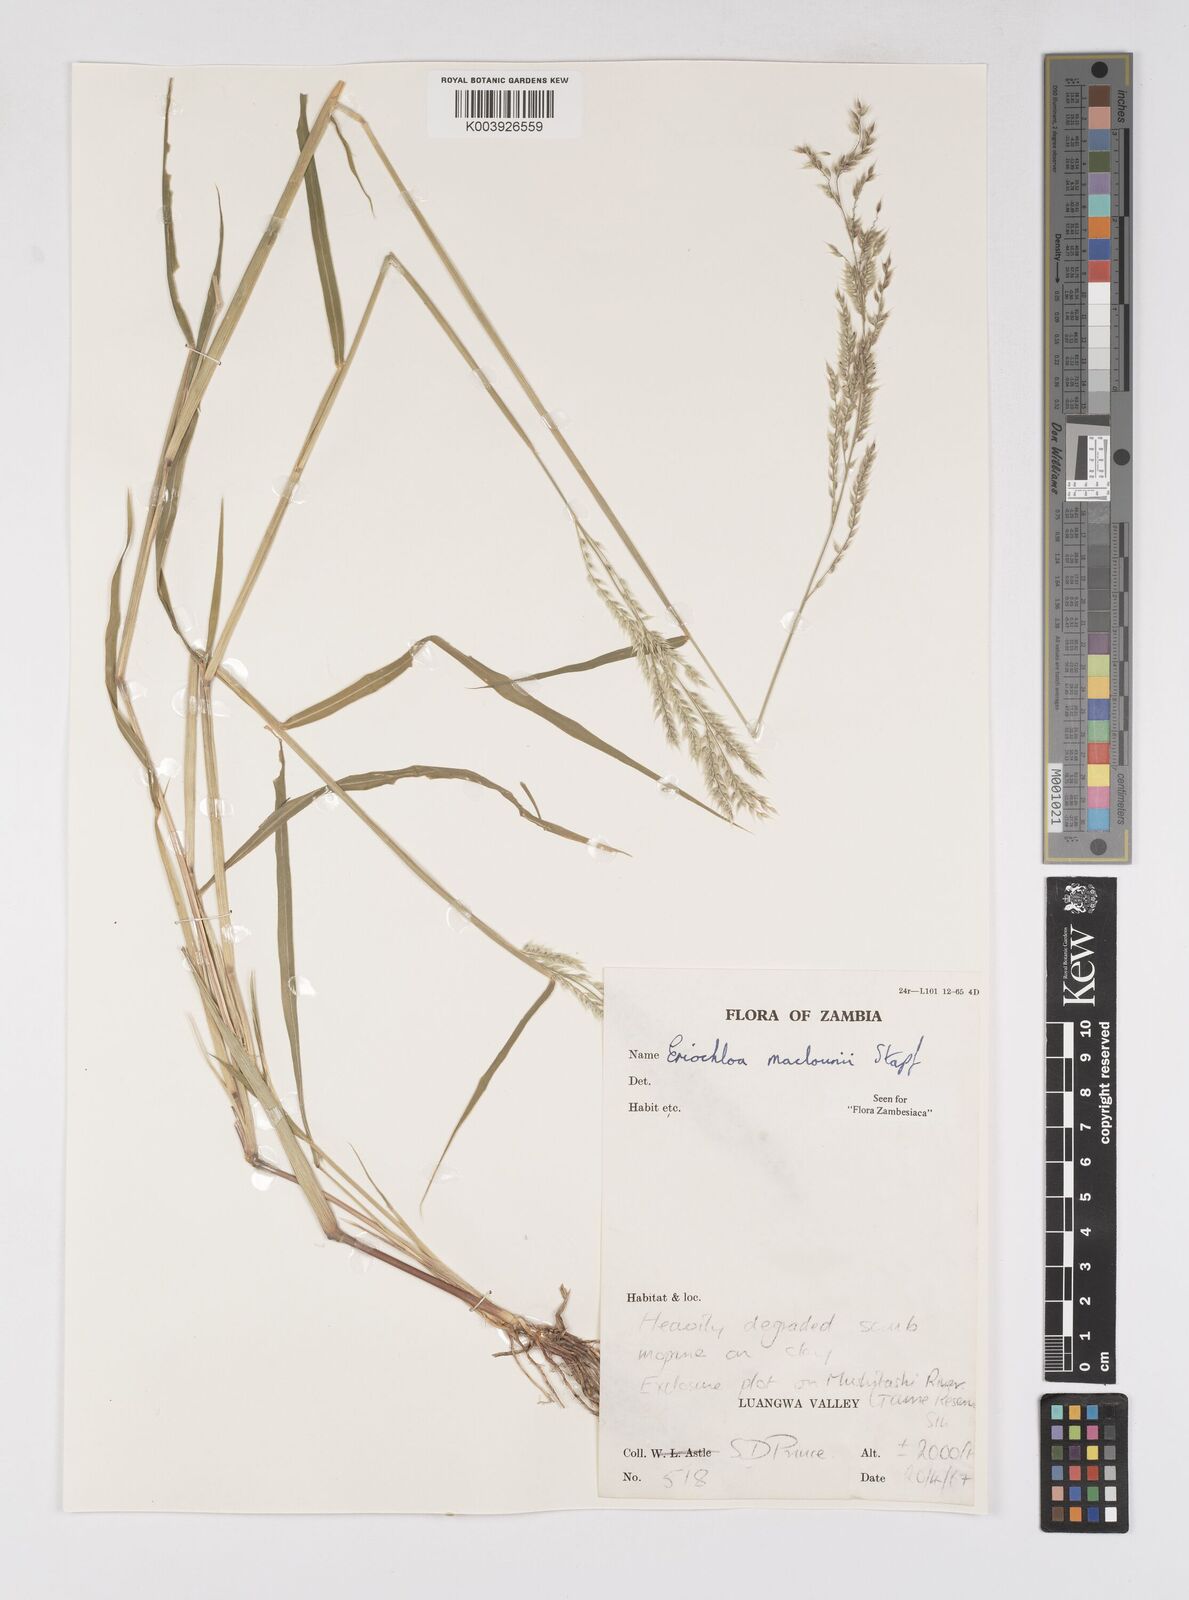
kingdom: Plantae
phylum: Tracheophyta
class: Liliopsida
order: Poales
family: Poaceae
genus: Eriochloa
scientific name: Eriochloa macclounii
